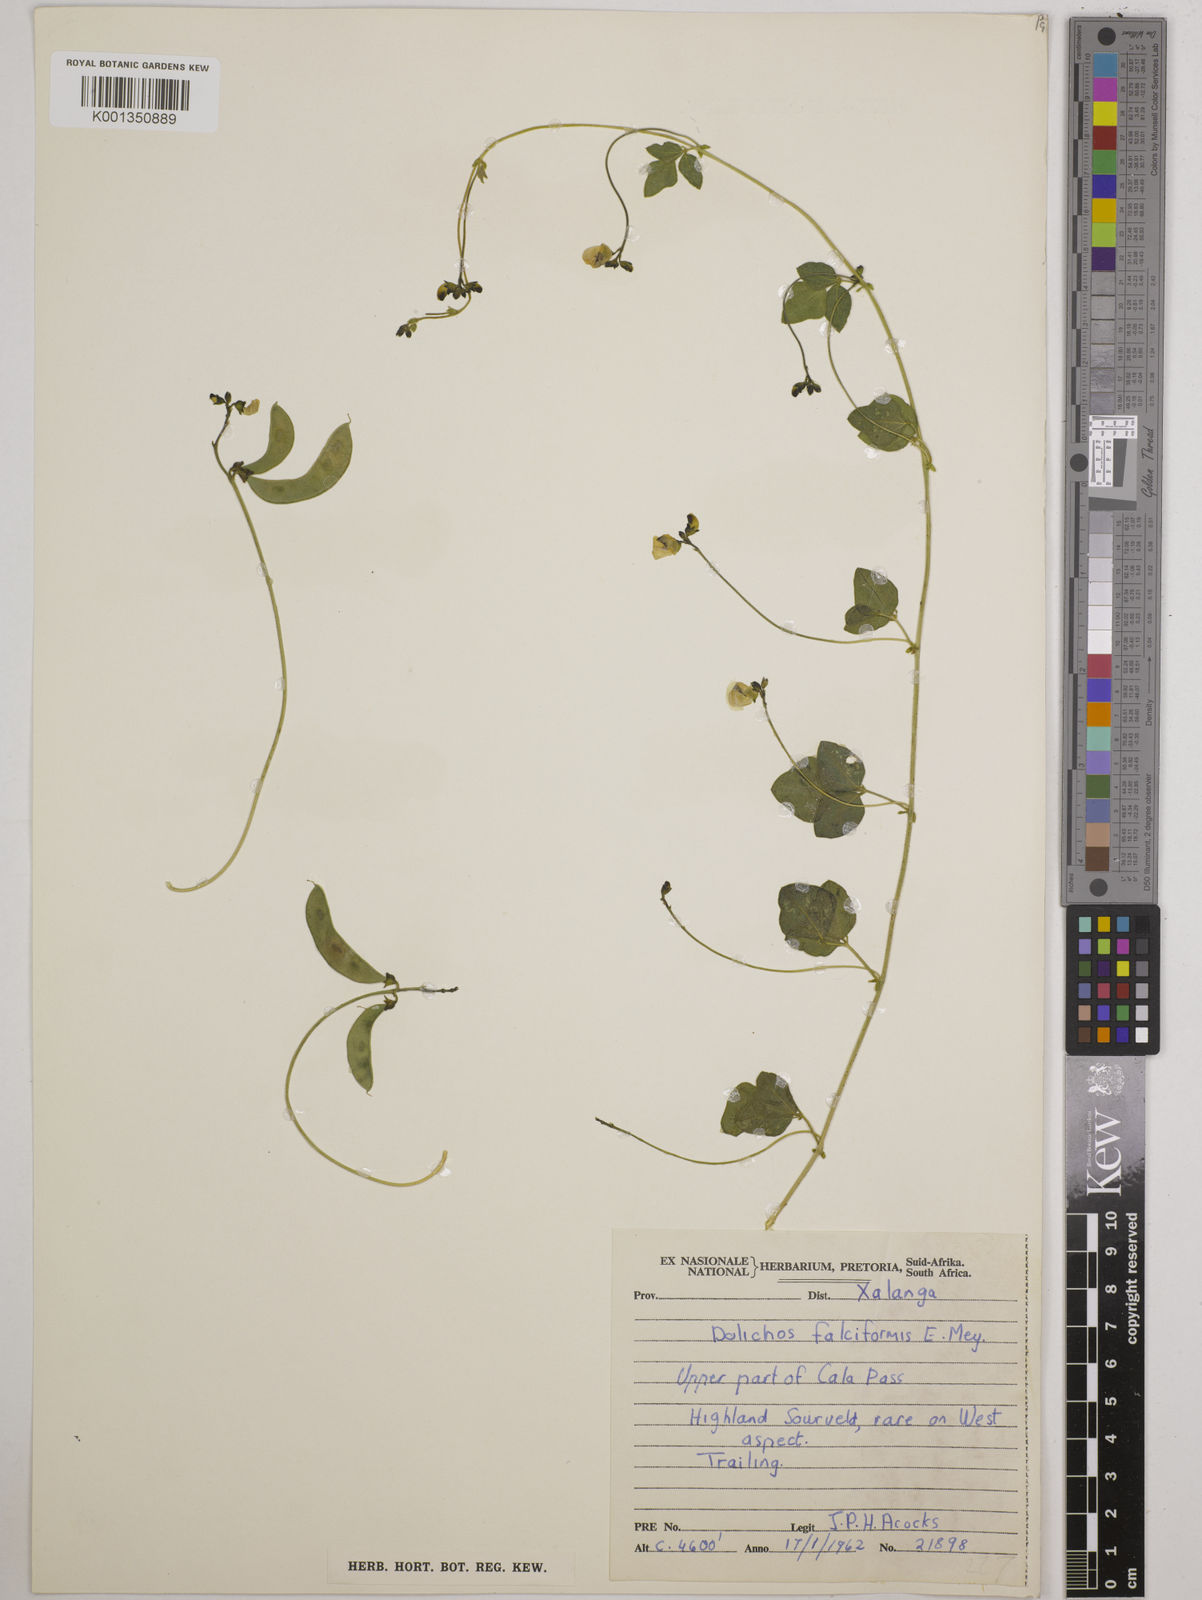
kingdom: Plantae
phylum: Tracheophyta
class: Magnoliopsida
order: Fabales
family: Fabaceae
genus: Dolichos
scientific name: Dolichos falciformis
